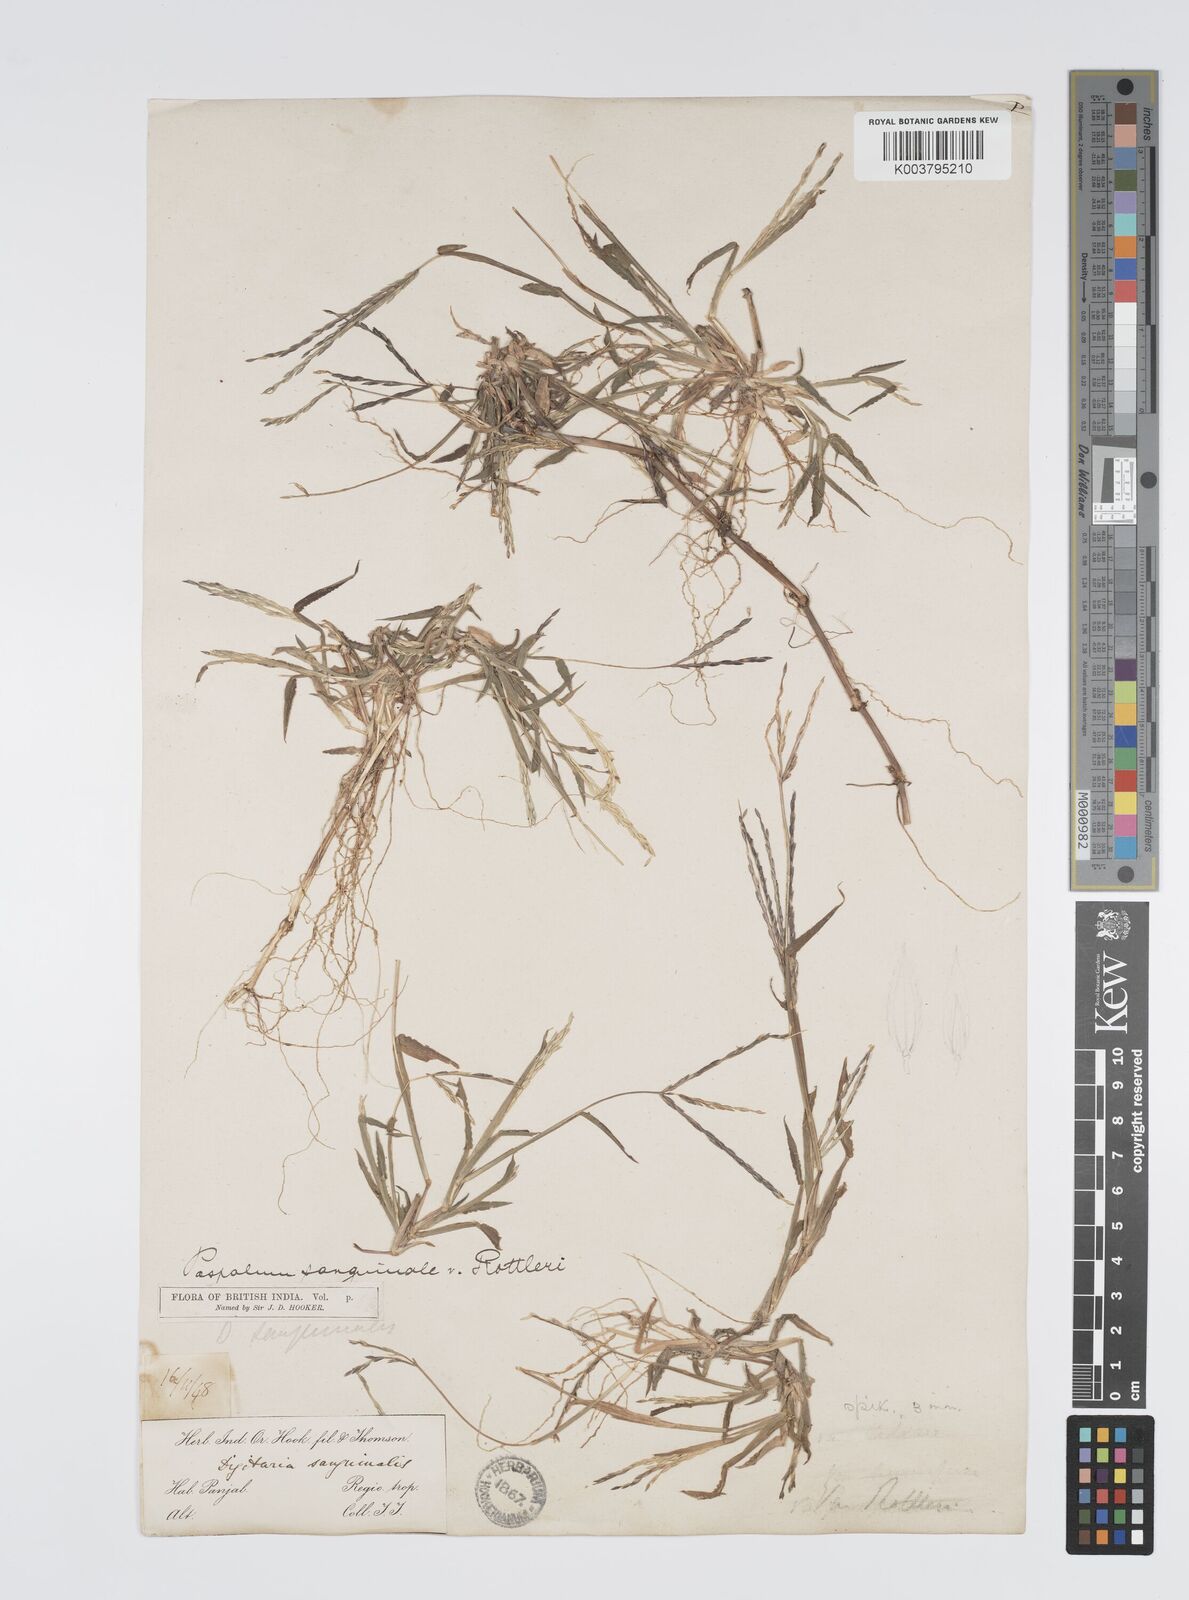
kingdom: Plantae
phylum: Tracheophyta
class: Liliopsida
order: Poales
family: Poaceae
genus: Digitaria
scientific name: Digitaria ciliaris
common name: Tropical finger-grass
